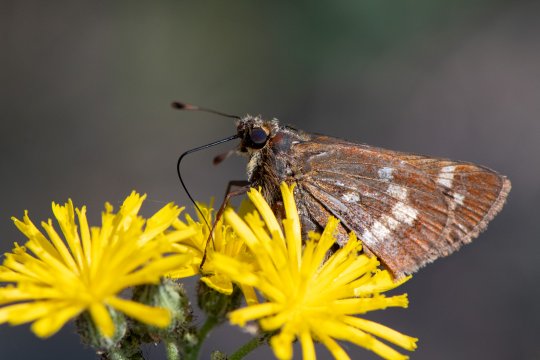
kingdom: Animalia
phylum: Arthropoda
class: Insecta
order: Lepidoptera
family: Hesperiidae
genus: Hesperia
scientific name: Hesperia leonardus
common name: Leonard's Skipper
